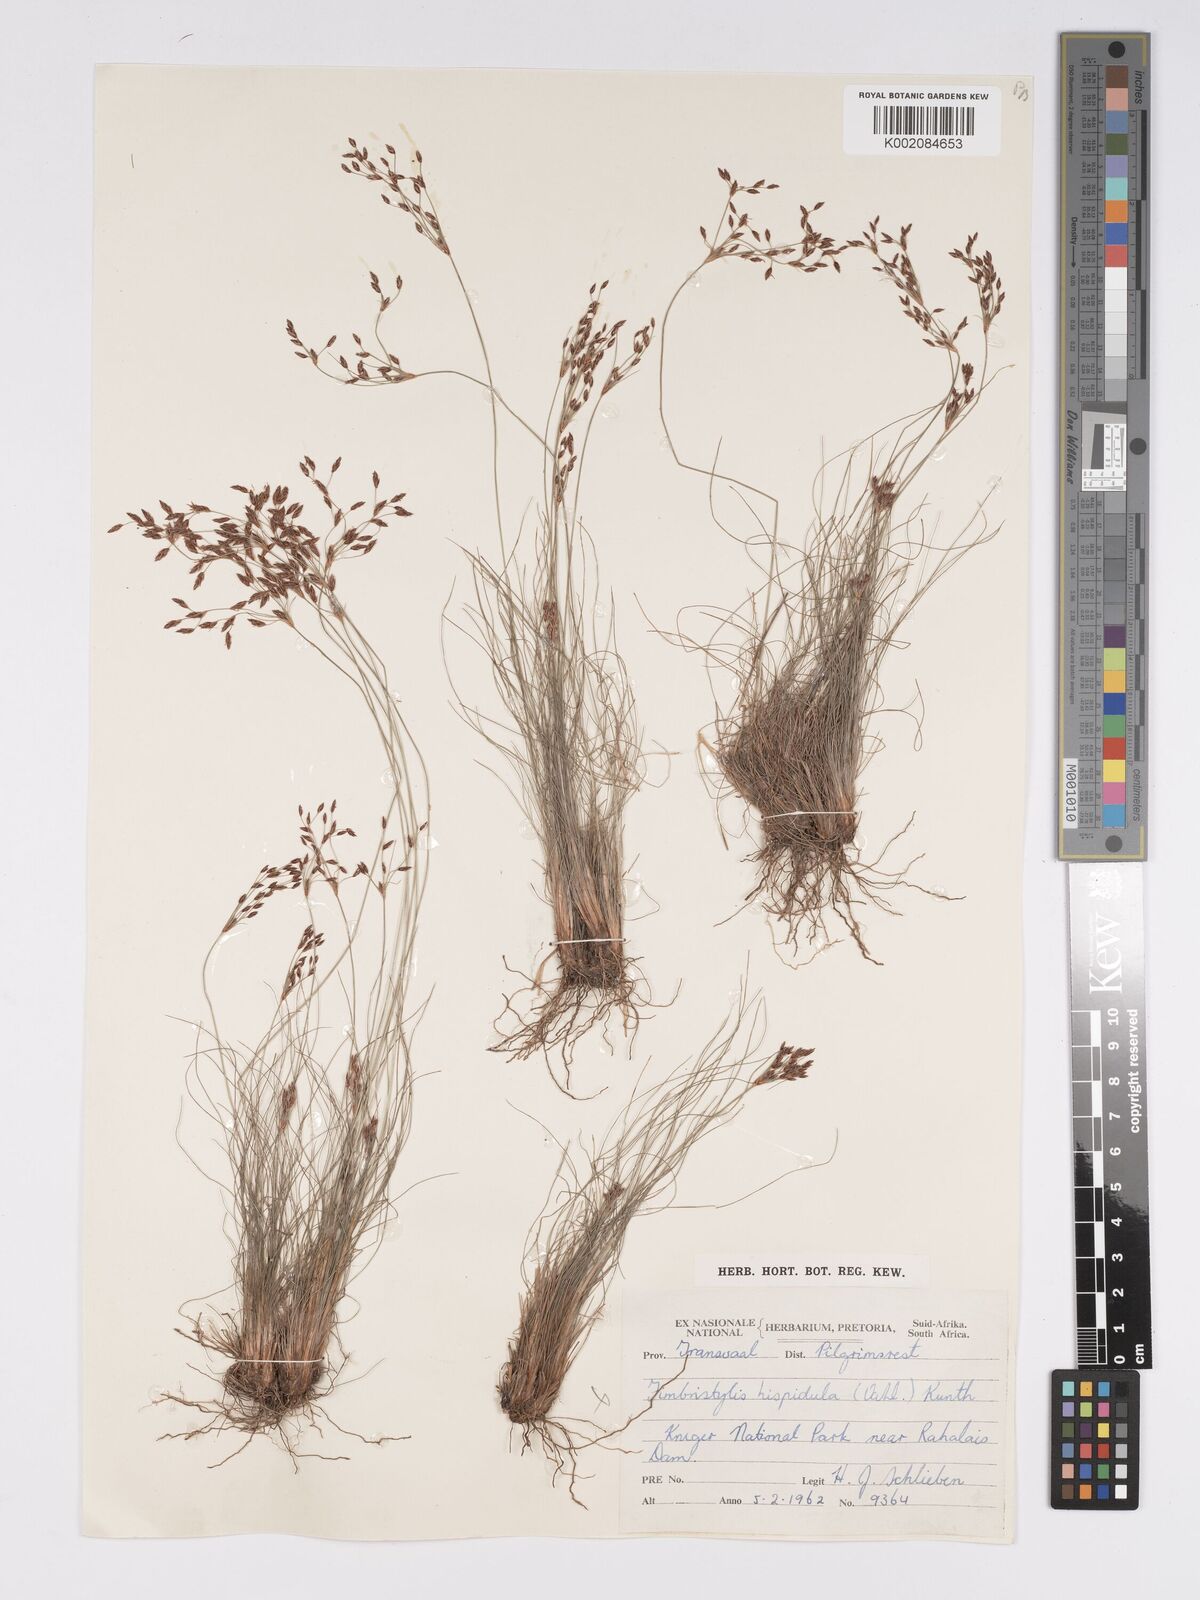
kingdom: Plantae
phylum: Tracheophyta
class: Liliopsida
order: Poales
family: Cyperaceae
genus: Bulbostylis
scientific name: Bulbostylis burchellii
